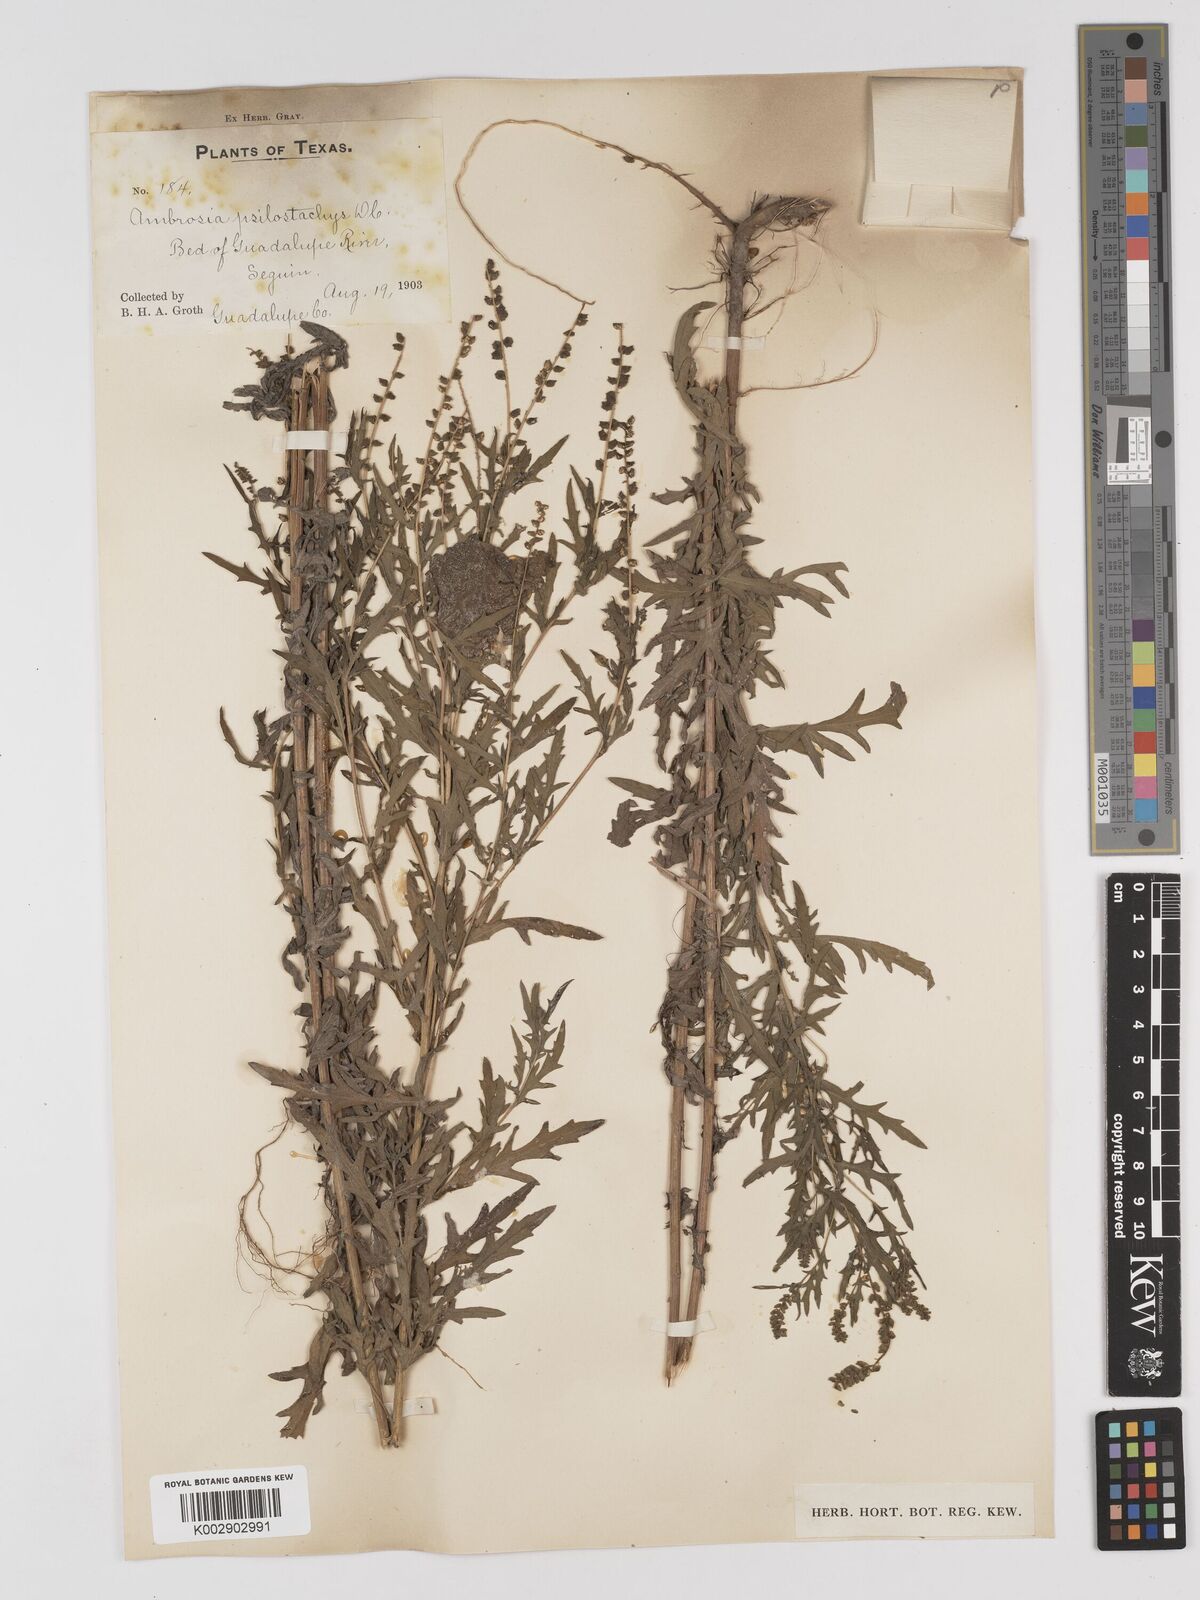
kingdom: Plantae
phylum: Tracheophyta
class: Magnoliopsida
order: Asterales
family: Asteraceae
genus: Ambrosia
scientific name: Ambrosia psilostachya
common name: Perennial ragweed
